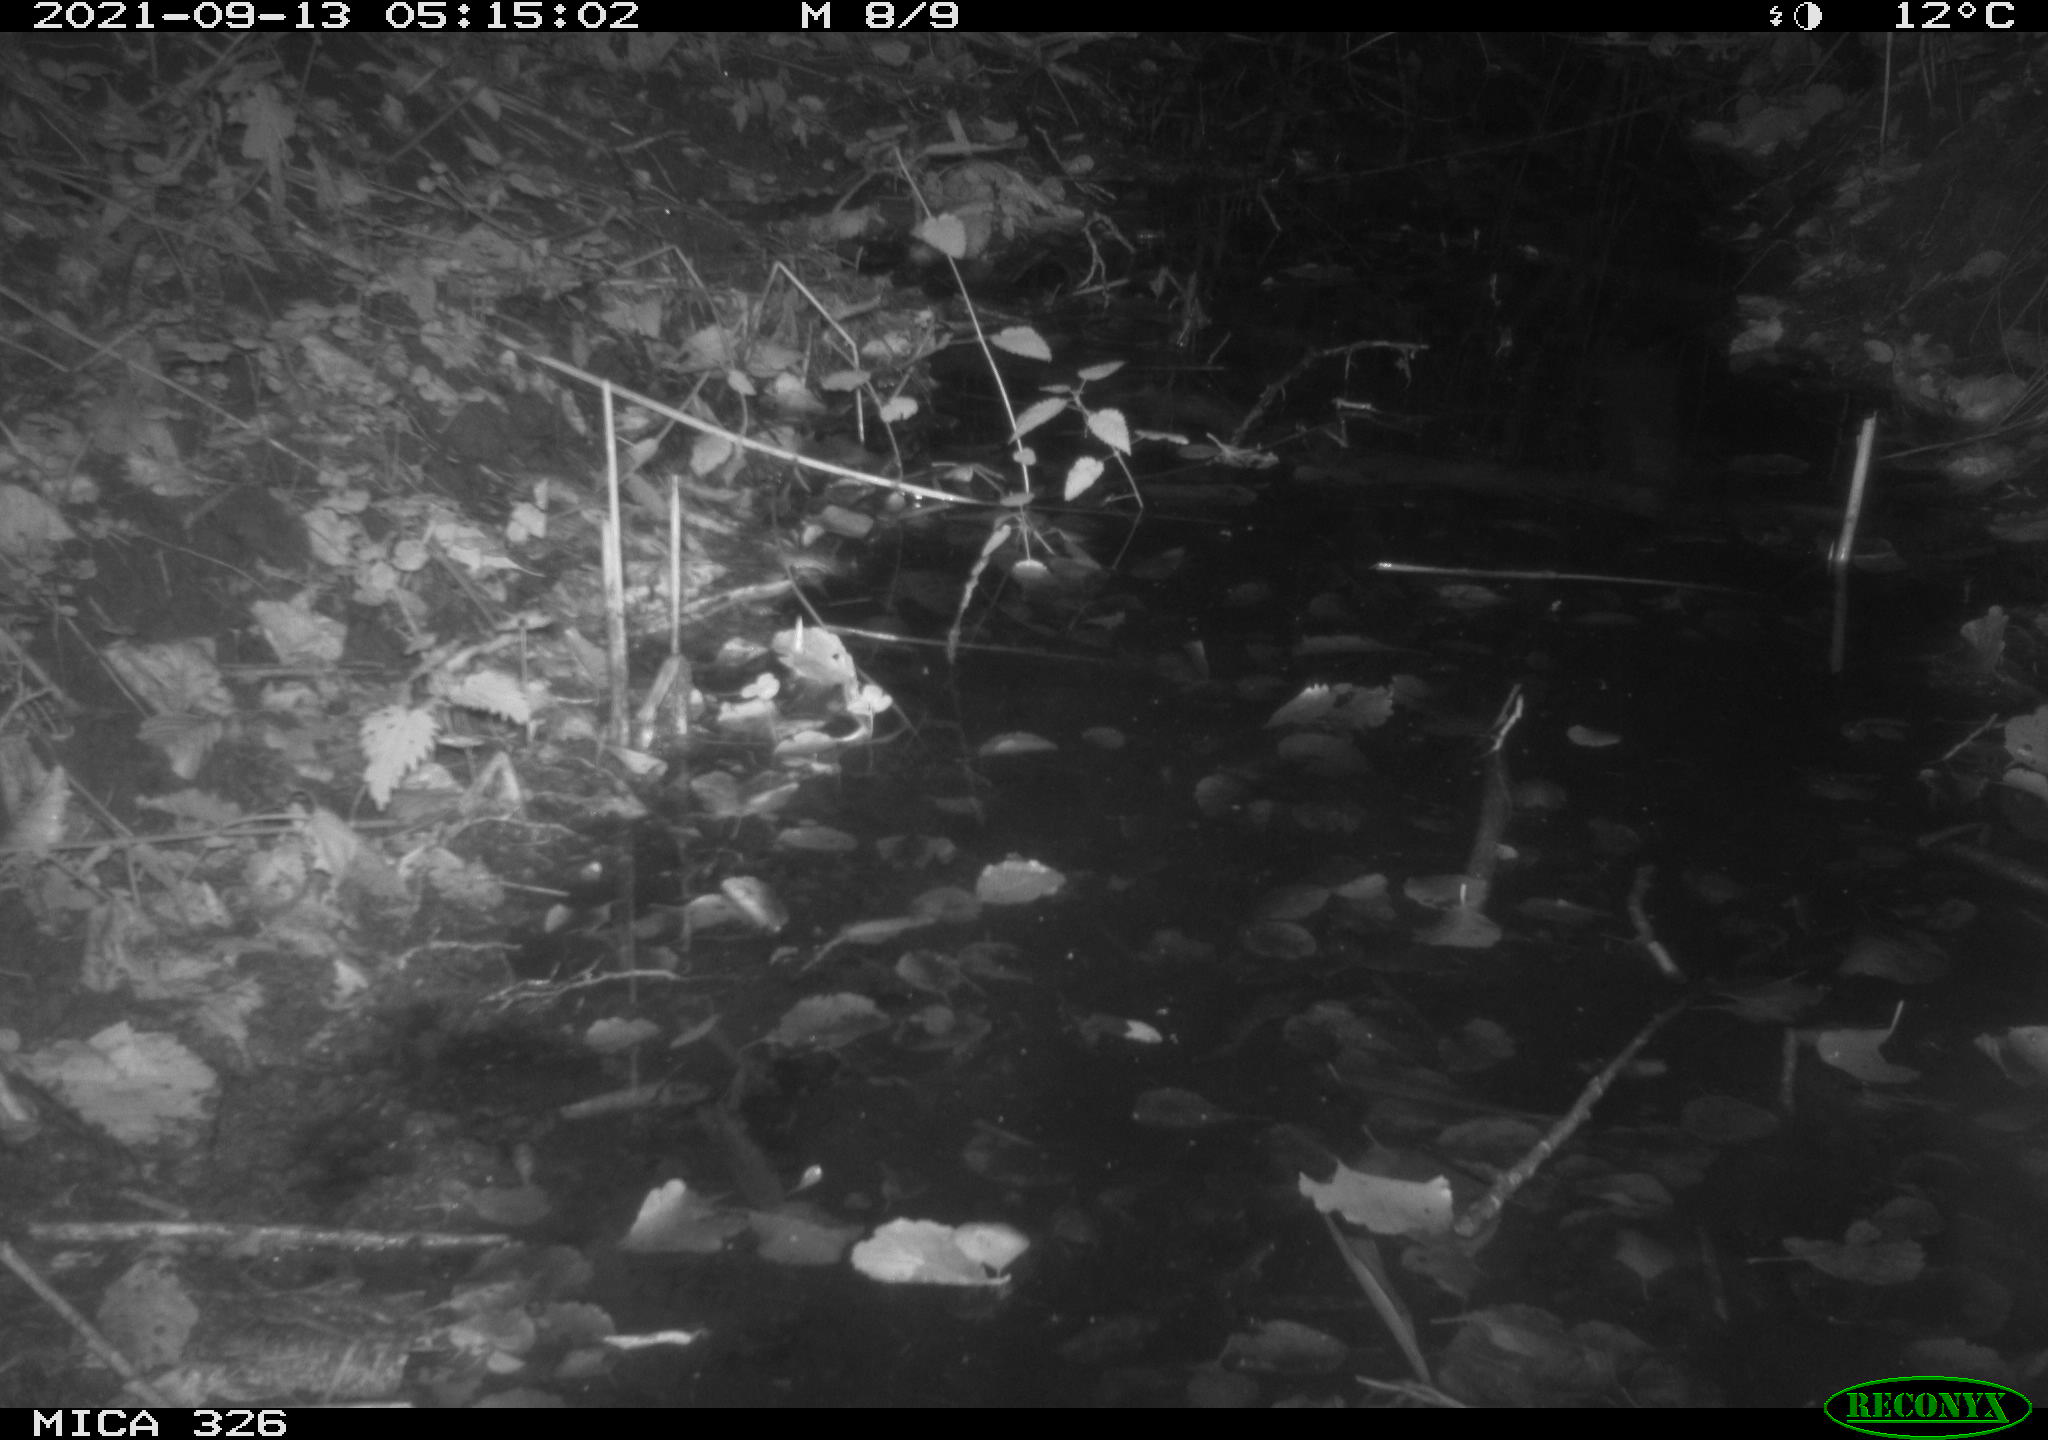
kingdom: Animalia
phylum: Chordata
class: Mammalia
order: Rodentia
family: Muridae
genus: Rattus
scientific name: Rattus norvegicus
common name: Brown rat
